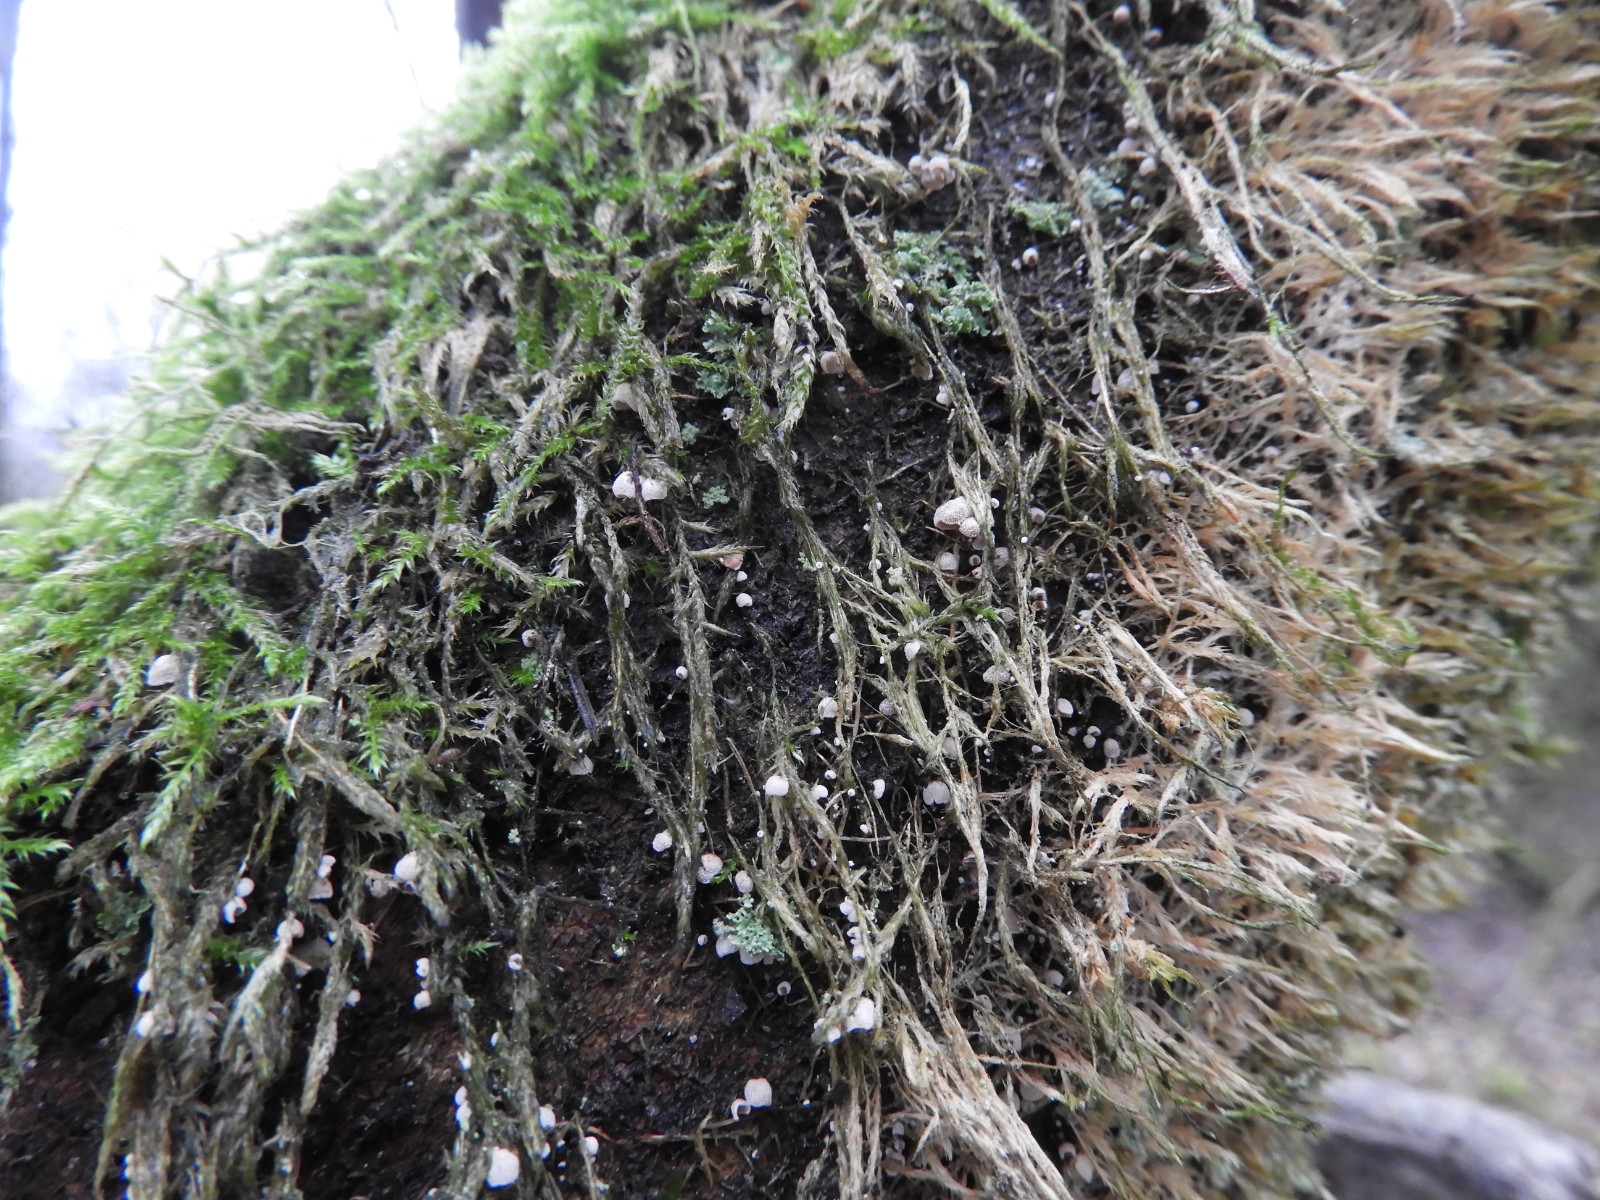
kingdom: Fungi
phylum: Basidiomycota
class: Agaricomycetes
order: Agaricales
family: Chromocyphellaceae
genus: Chromocyphella
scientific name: Chromocyphella muscicola
